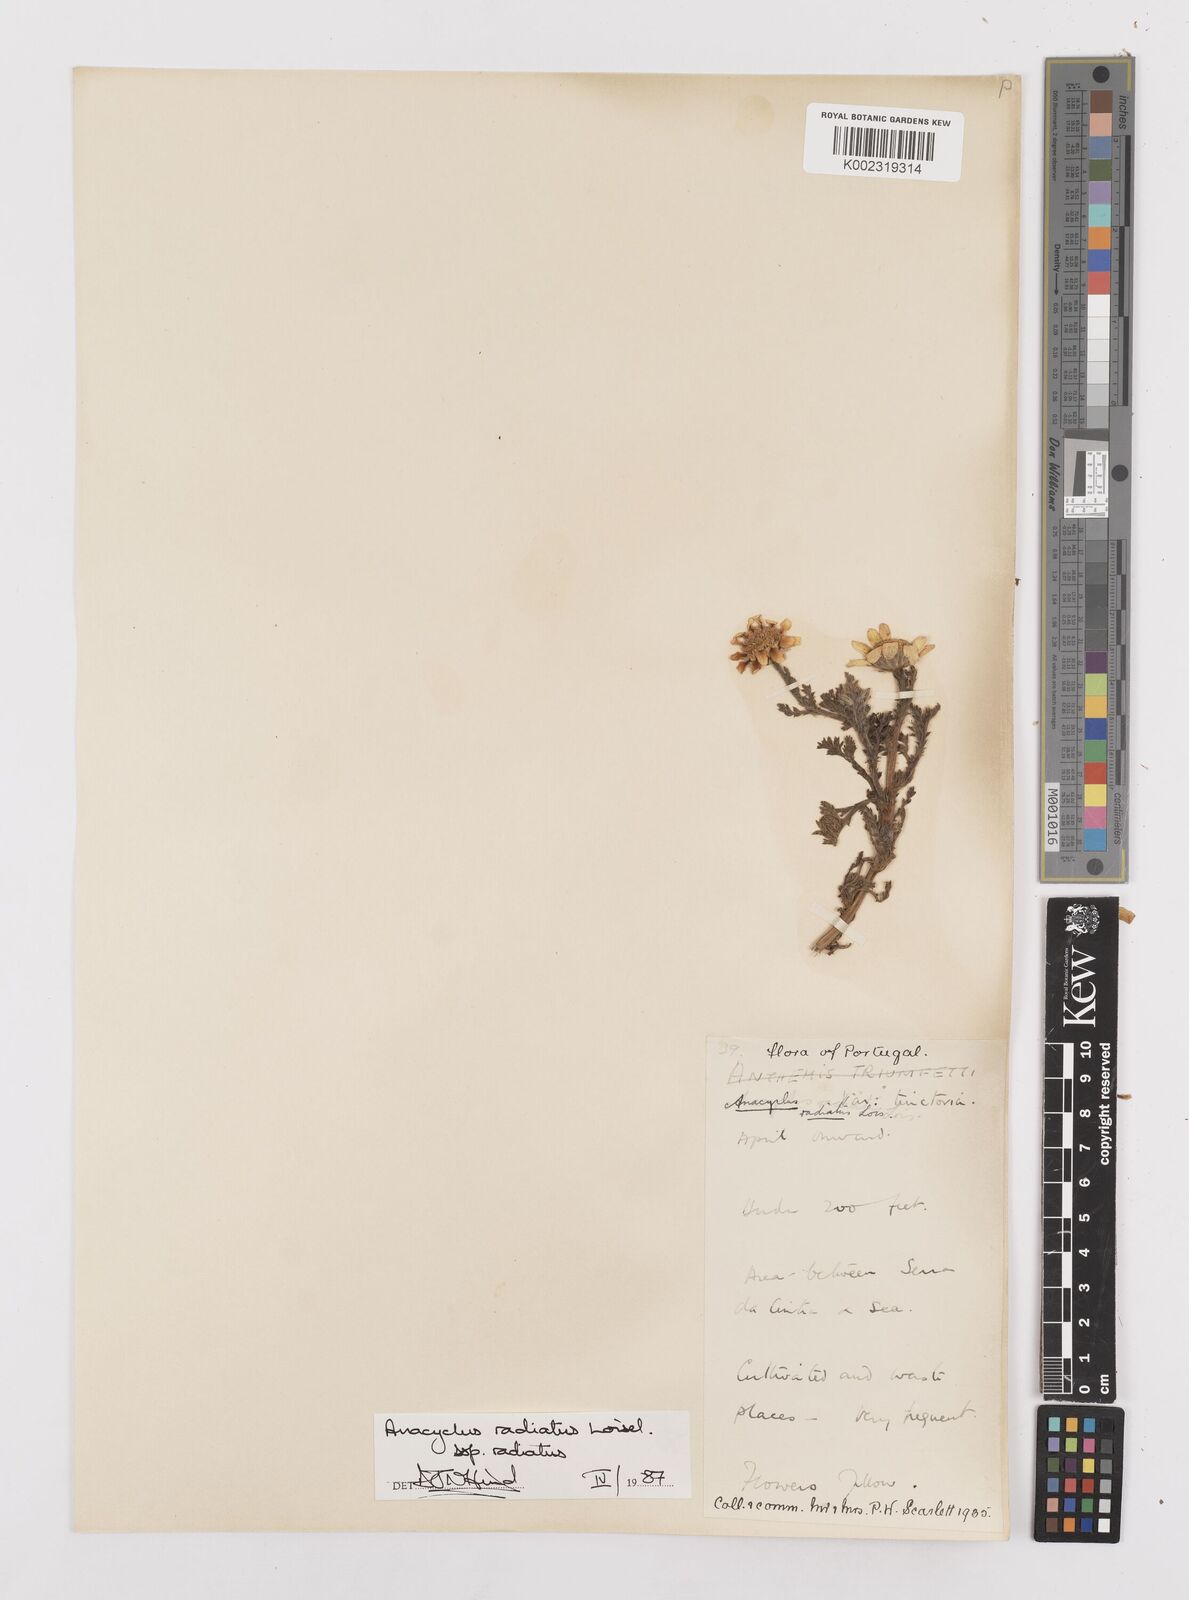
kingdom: Plantae
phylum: Tracheophyta
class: Magnoliopsida
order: Asterales
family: Asteraceae
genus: Anacyclus
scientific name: Anacyclus radiatus
